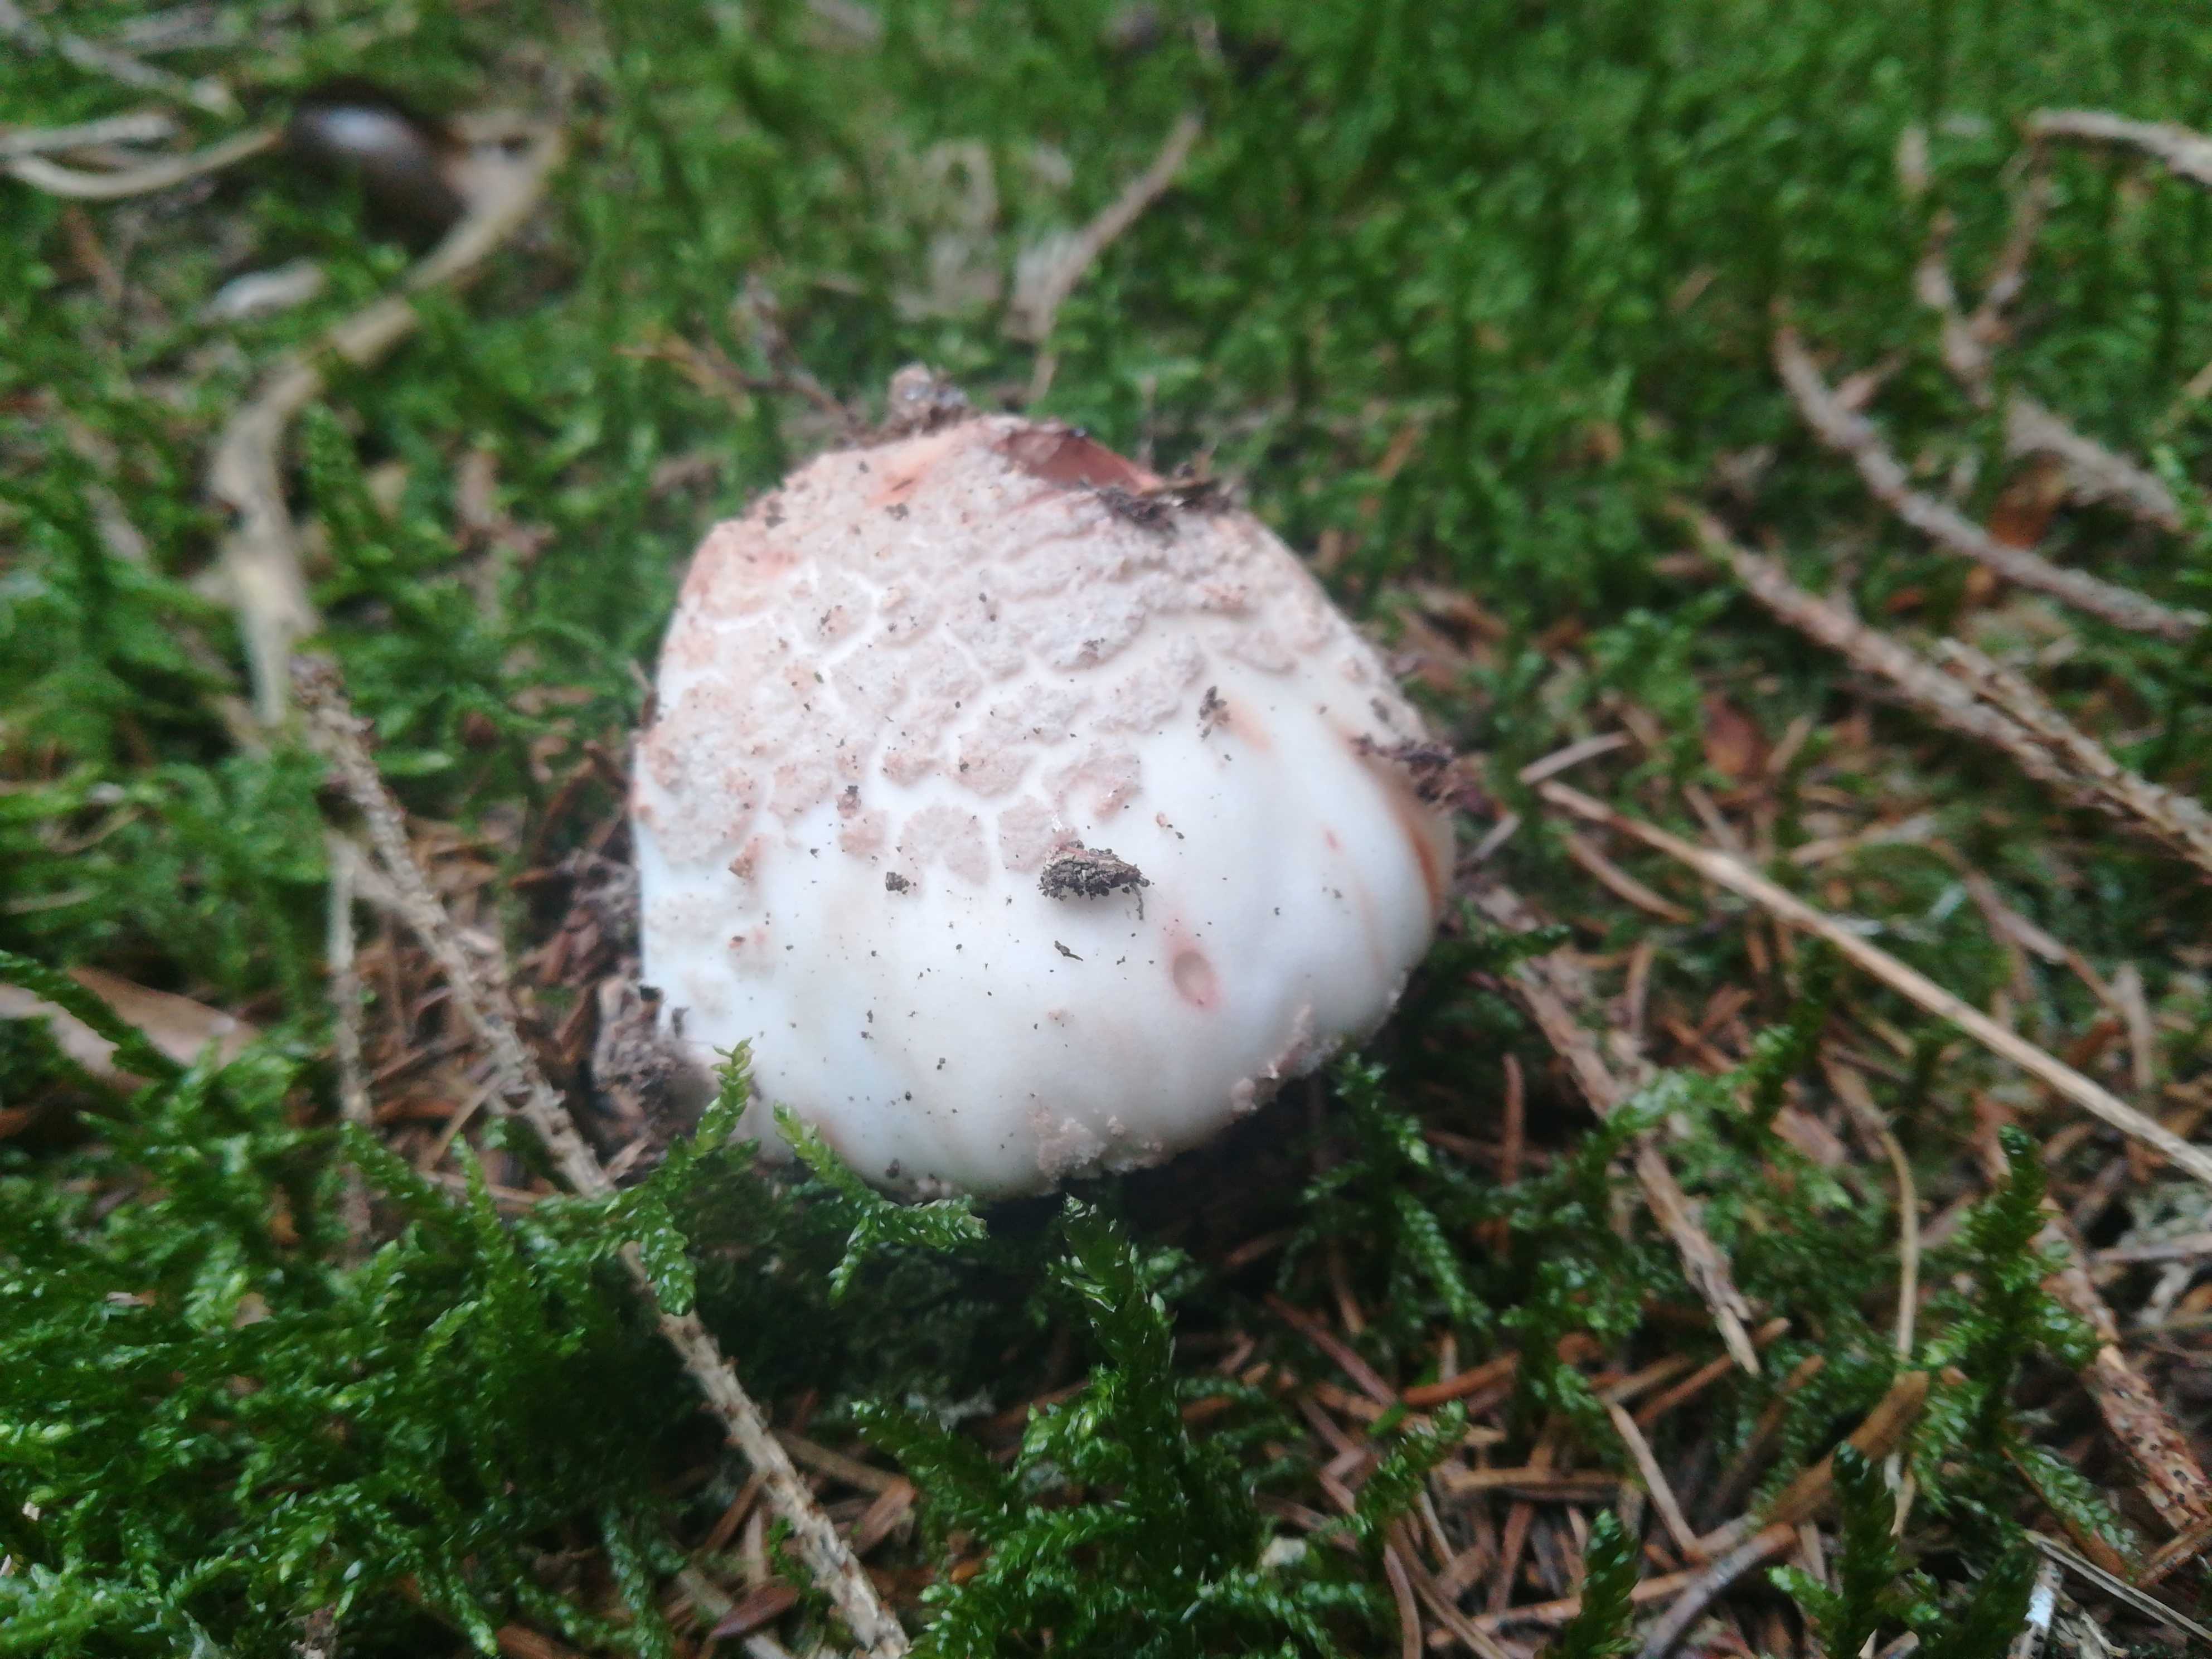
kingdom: Fungi
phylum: Basidiomycota
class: Agaricomycetes
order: Agaricales
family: Amanitaceae
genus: Amanita
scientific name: Amanita rubescens
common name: rødmende fluesvamp
